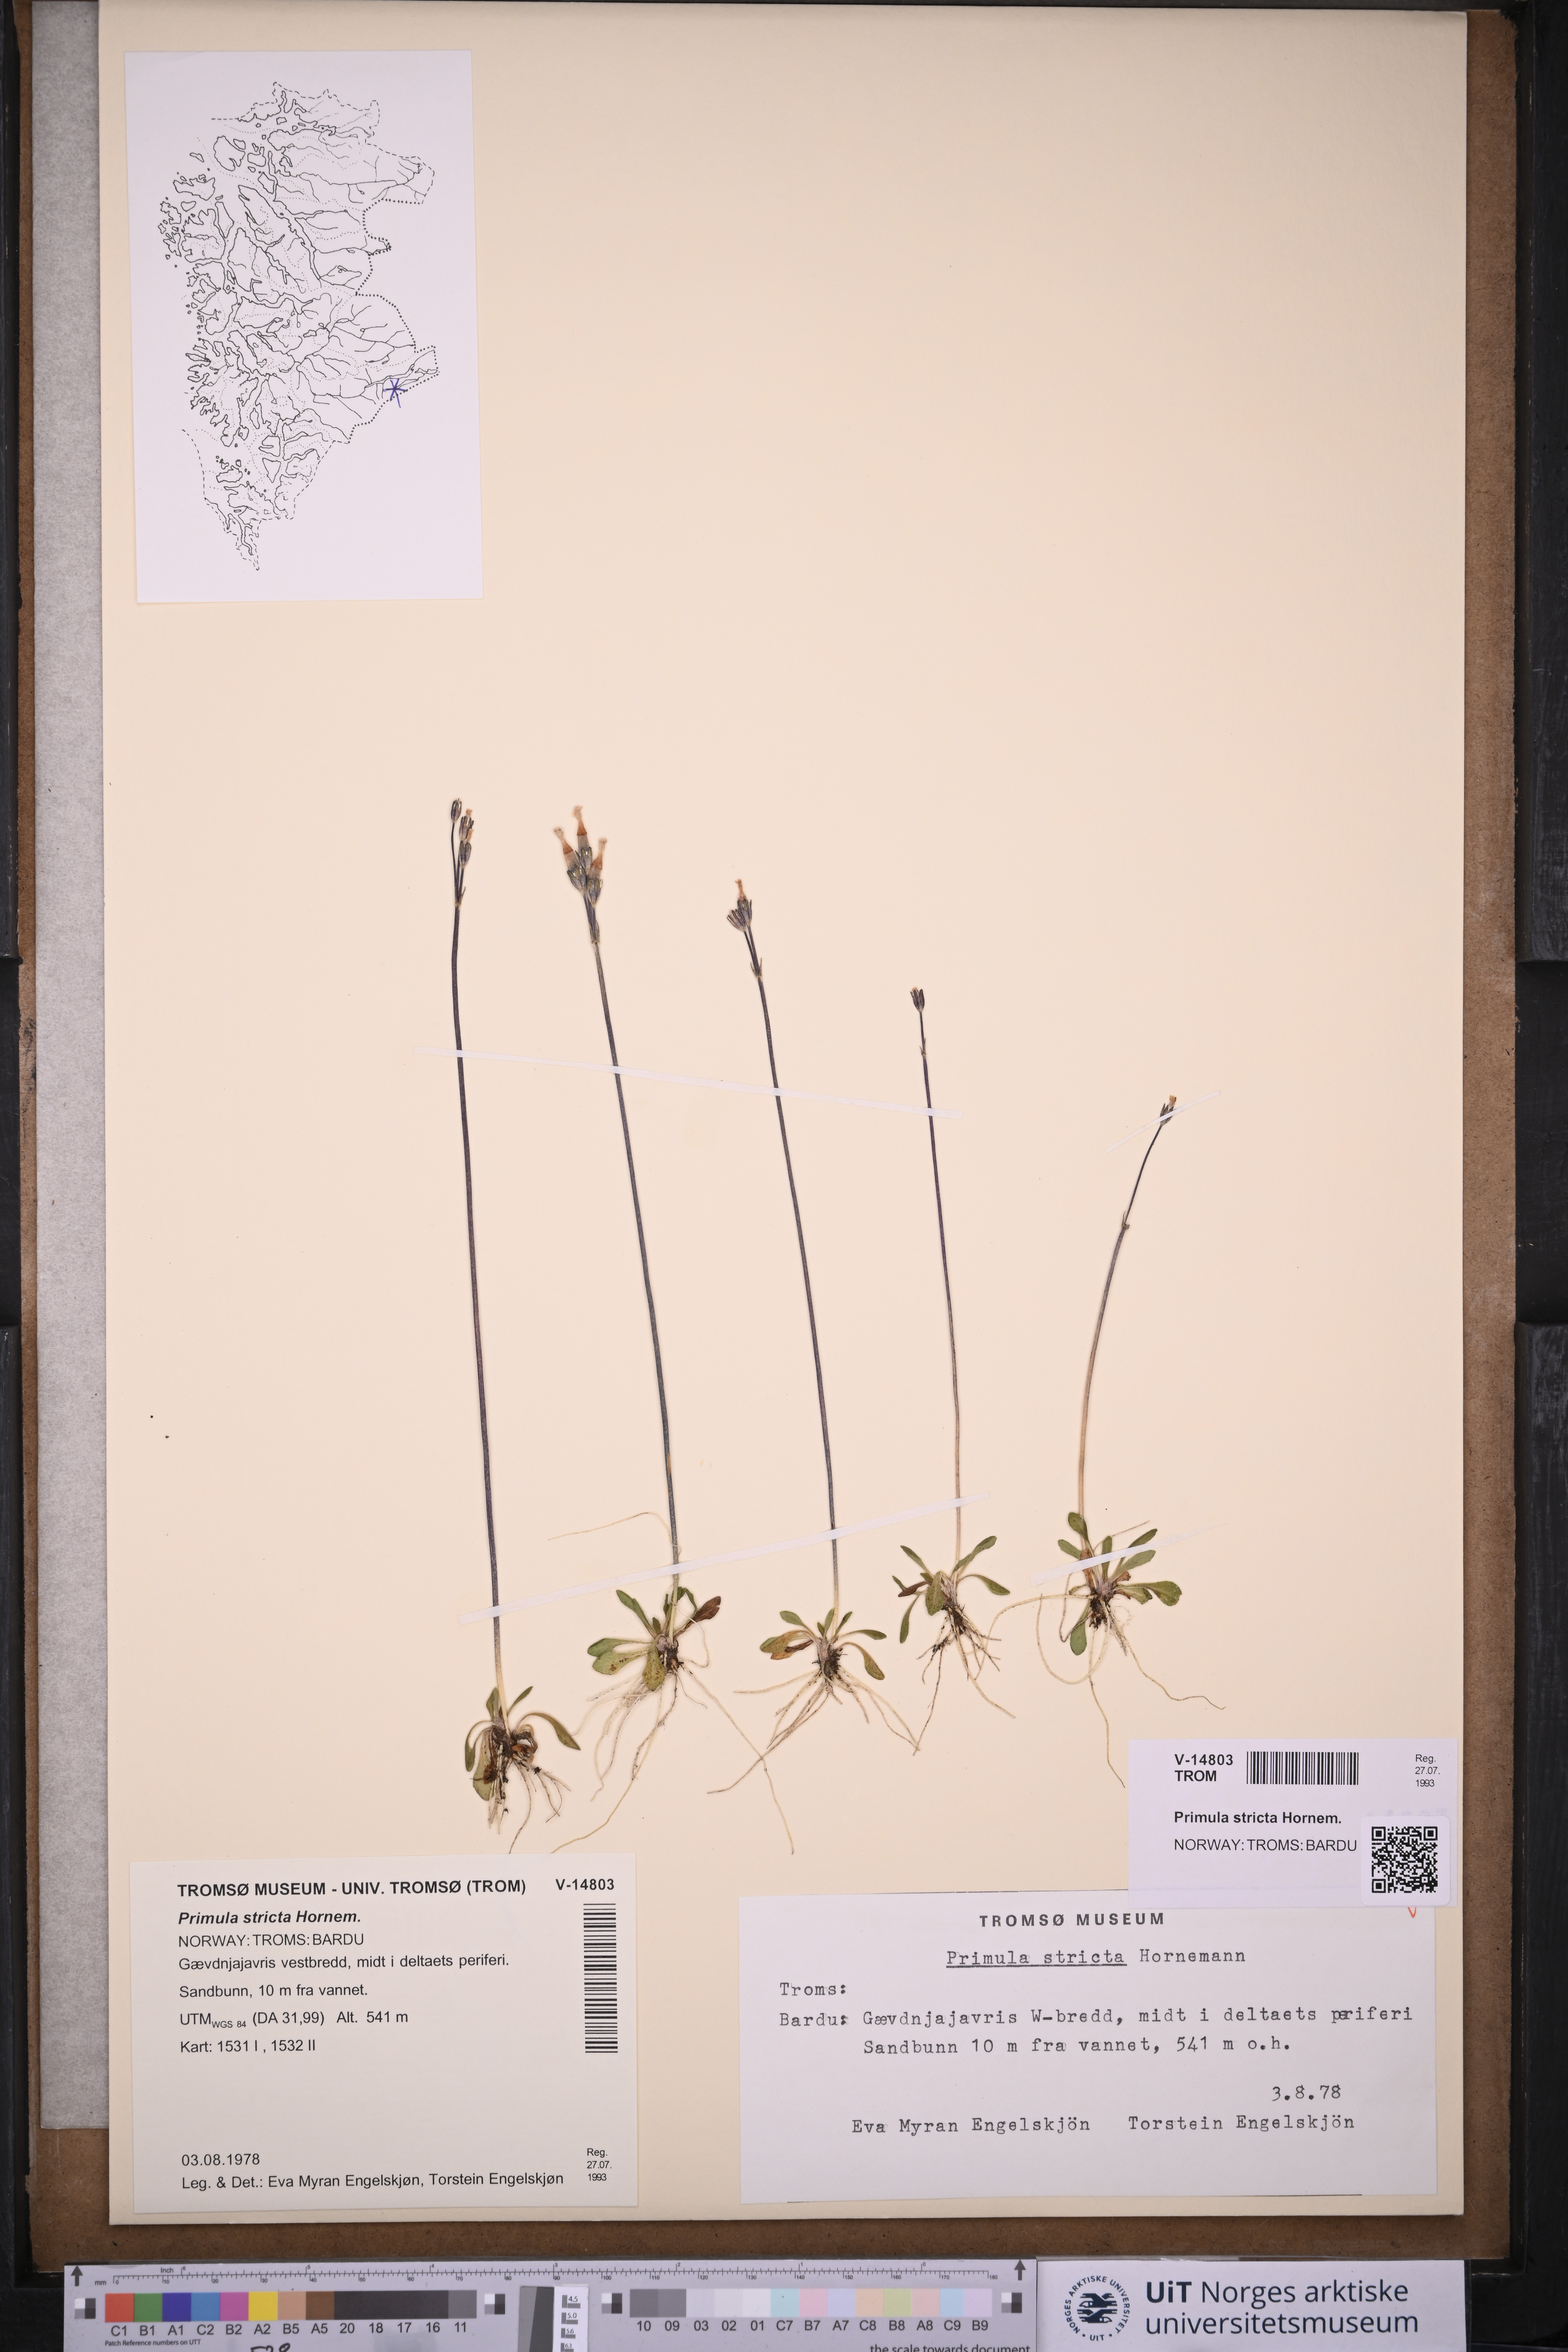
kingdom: Plantae
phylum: Tracheophyta
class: Magnoliopsida
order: Ericales
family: Primulaceae
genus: Primula
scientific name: Primula stricta
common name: Coastal primrose
